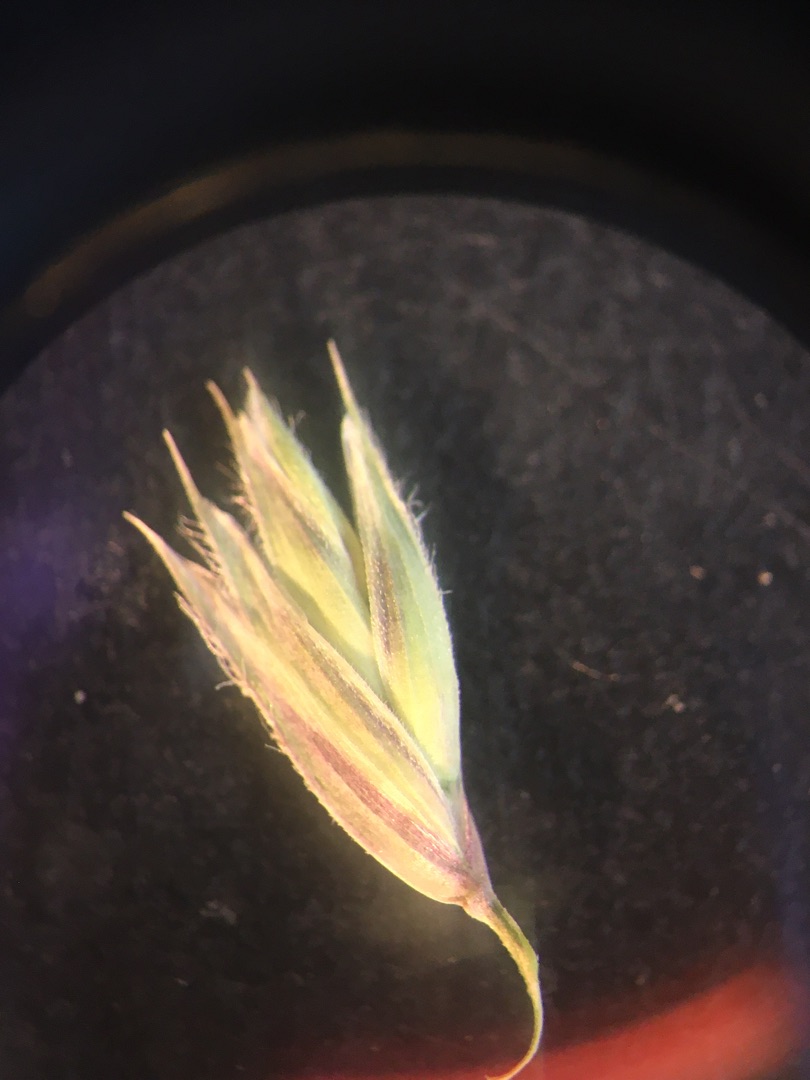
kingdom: Plantae
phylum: Tracheophyta
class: Liliopsida
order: Poales
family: Poaceae
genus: Dactylis
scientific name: Dactylis glomerata
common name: Almindelig hundegræs
